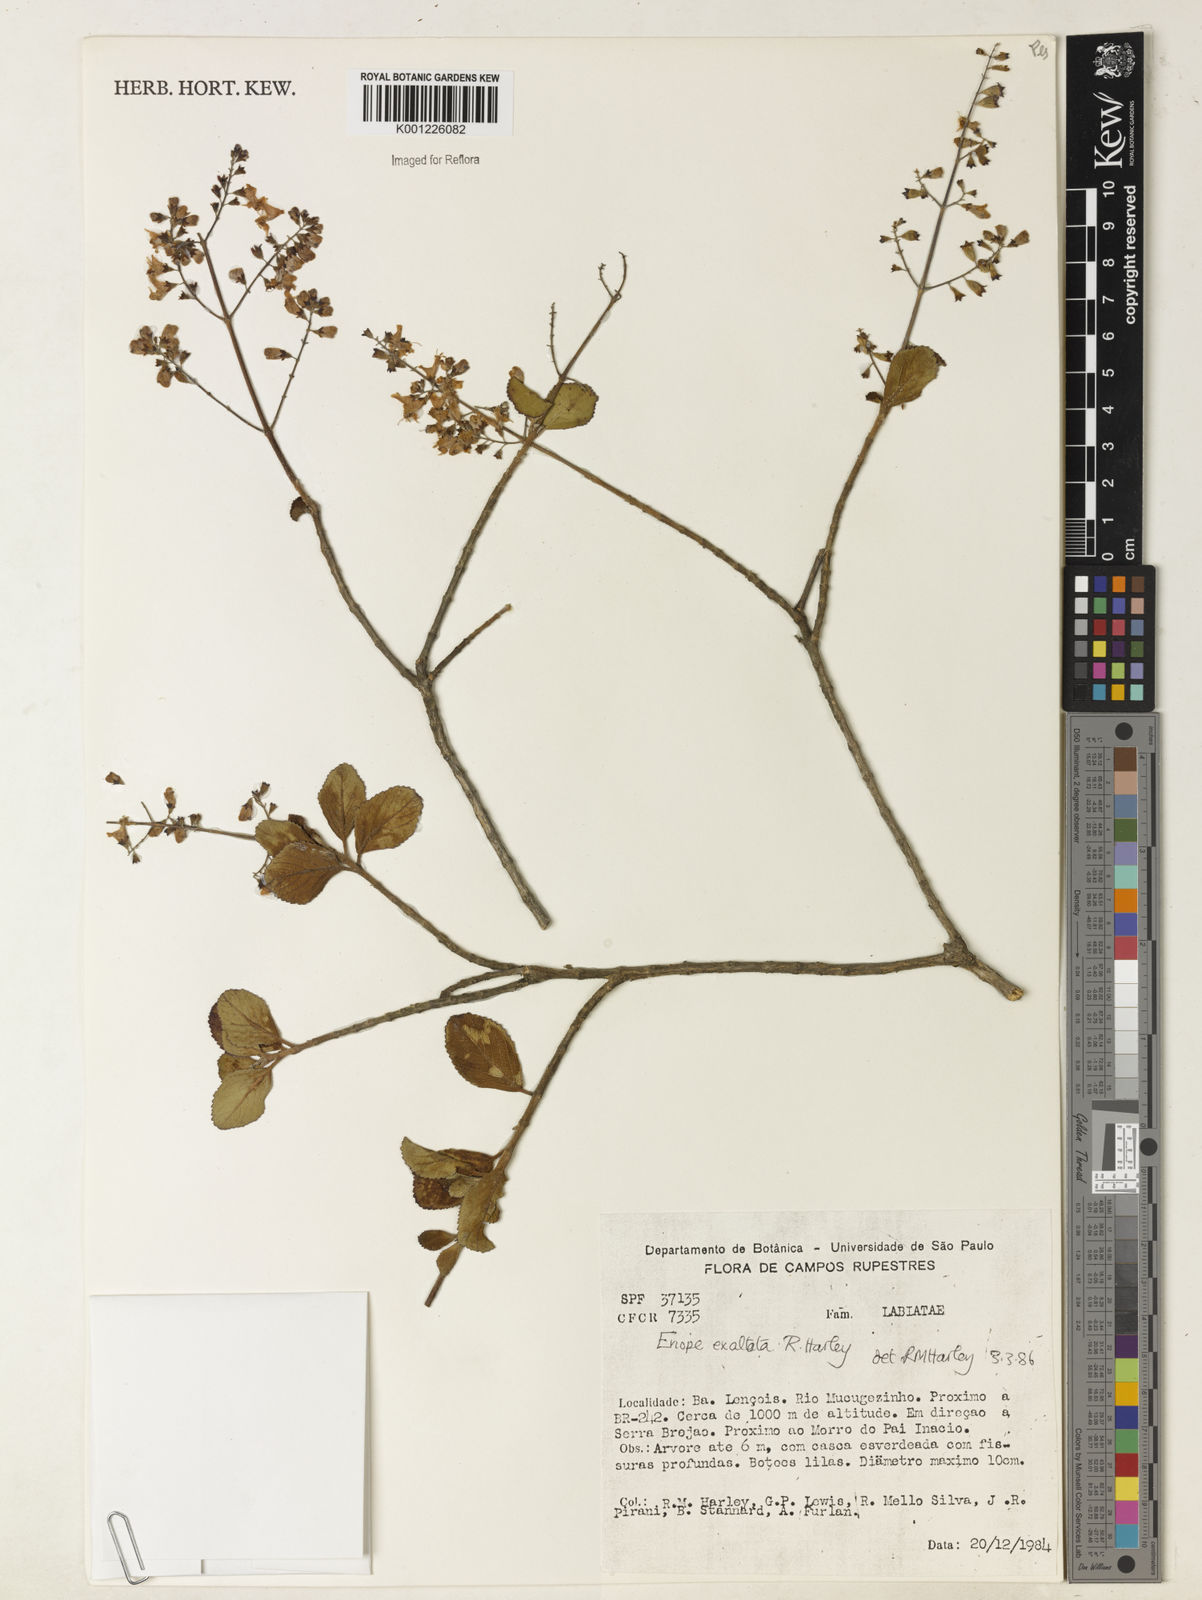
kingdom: Plantae
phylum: Tracheophyta
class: Magnoliopsida
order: Lamiales
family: Lamiaceae
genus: Eriope
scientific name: Eriope exaltata
